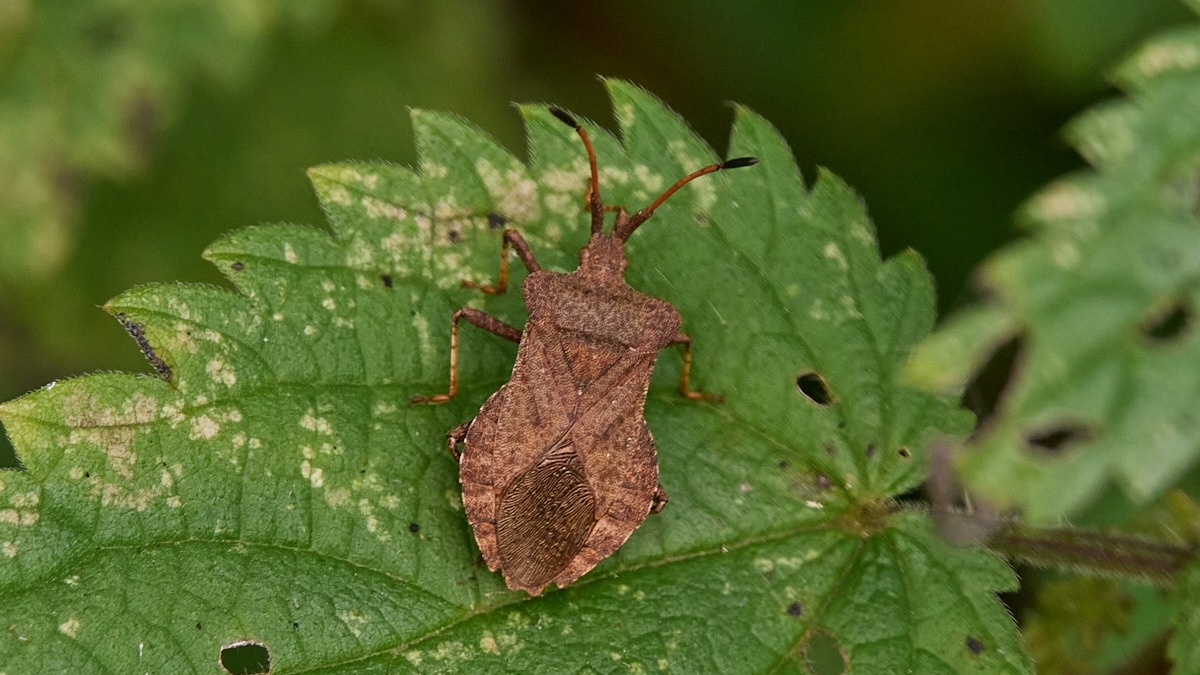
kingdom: Animalia
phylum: Arthropoda
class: Insecta
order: Hemiptera
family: Coreidae
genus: Coreus
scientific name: Coreus marginatus
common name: Skræppetæge
